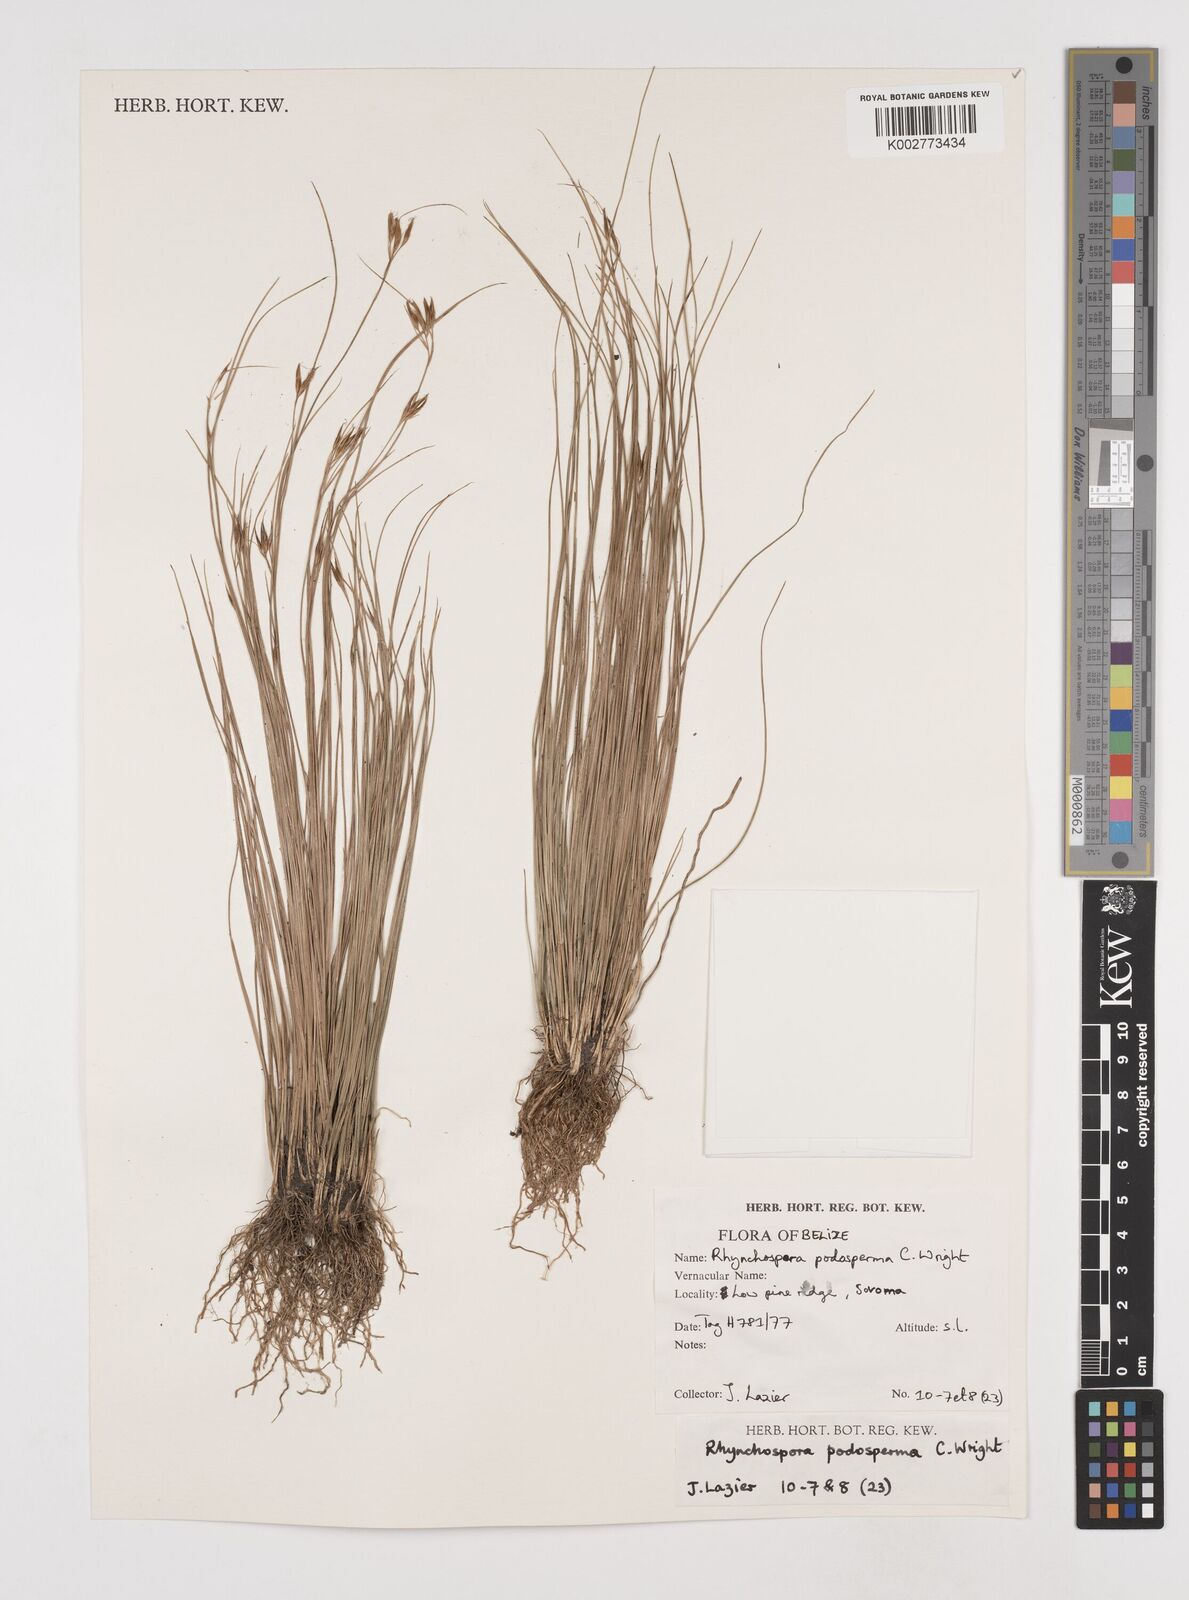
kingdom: Plantae
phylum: Tracheophyta
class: Liliopsida
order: Poales
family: Cyperaceae
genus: Rhynchospora
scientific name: Rhynchospora filiformis
